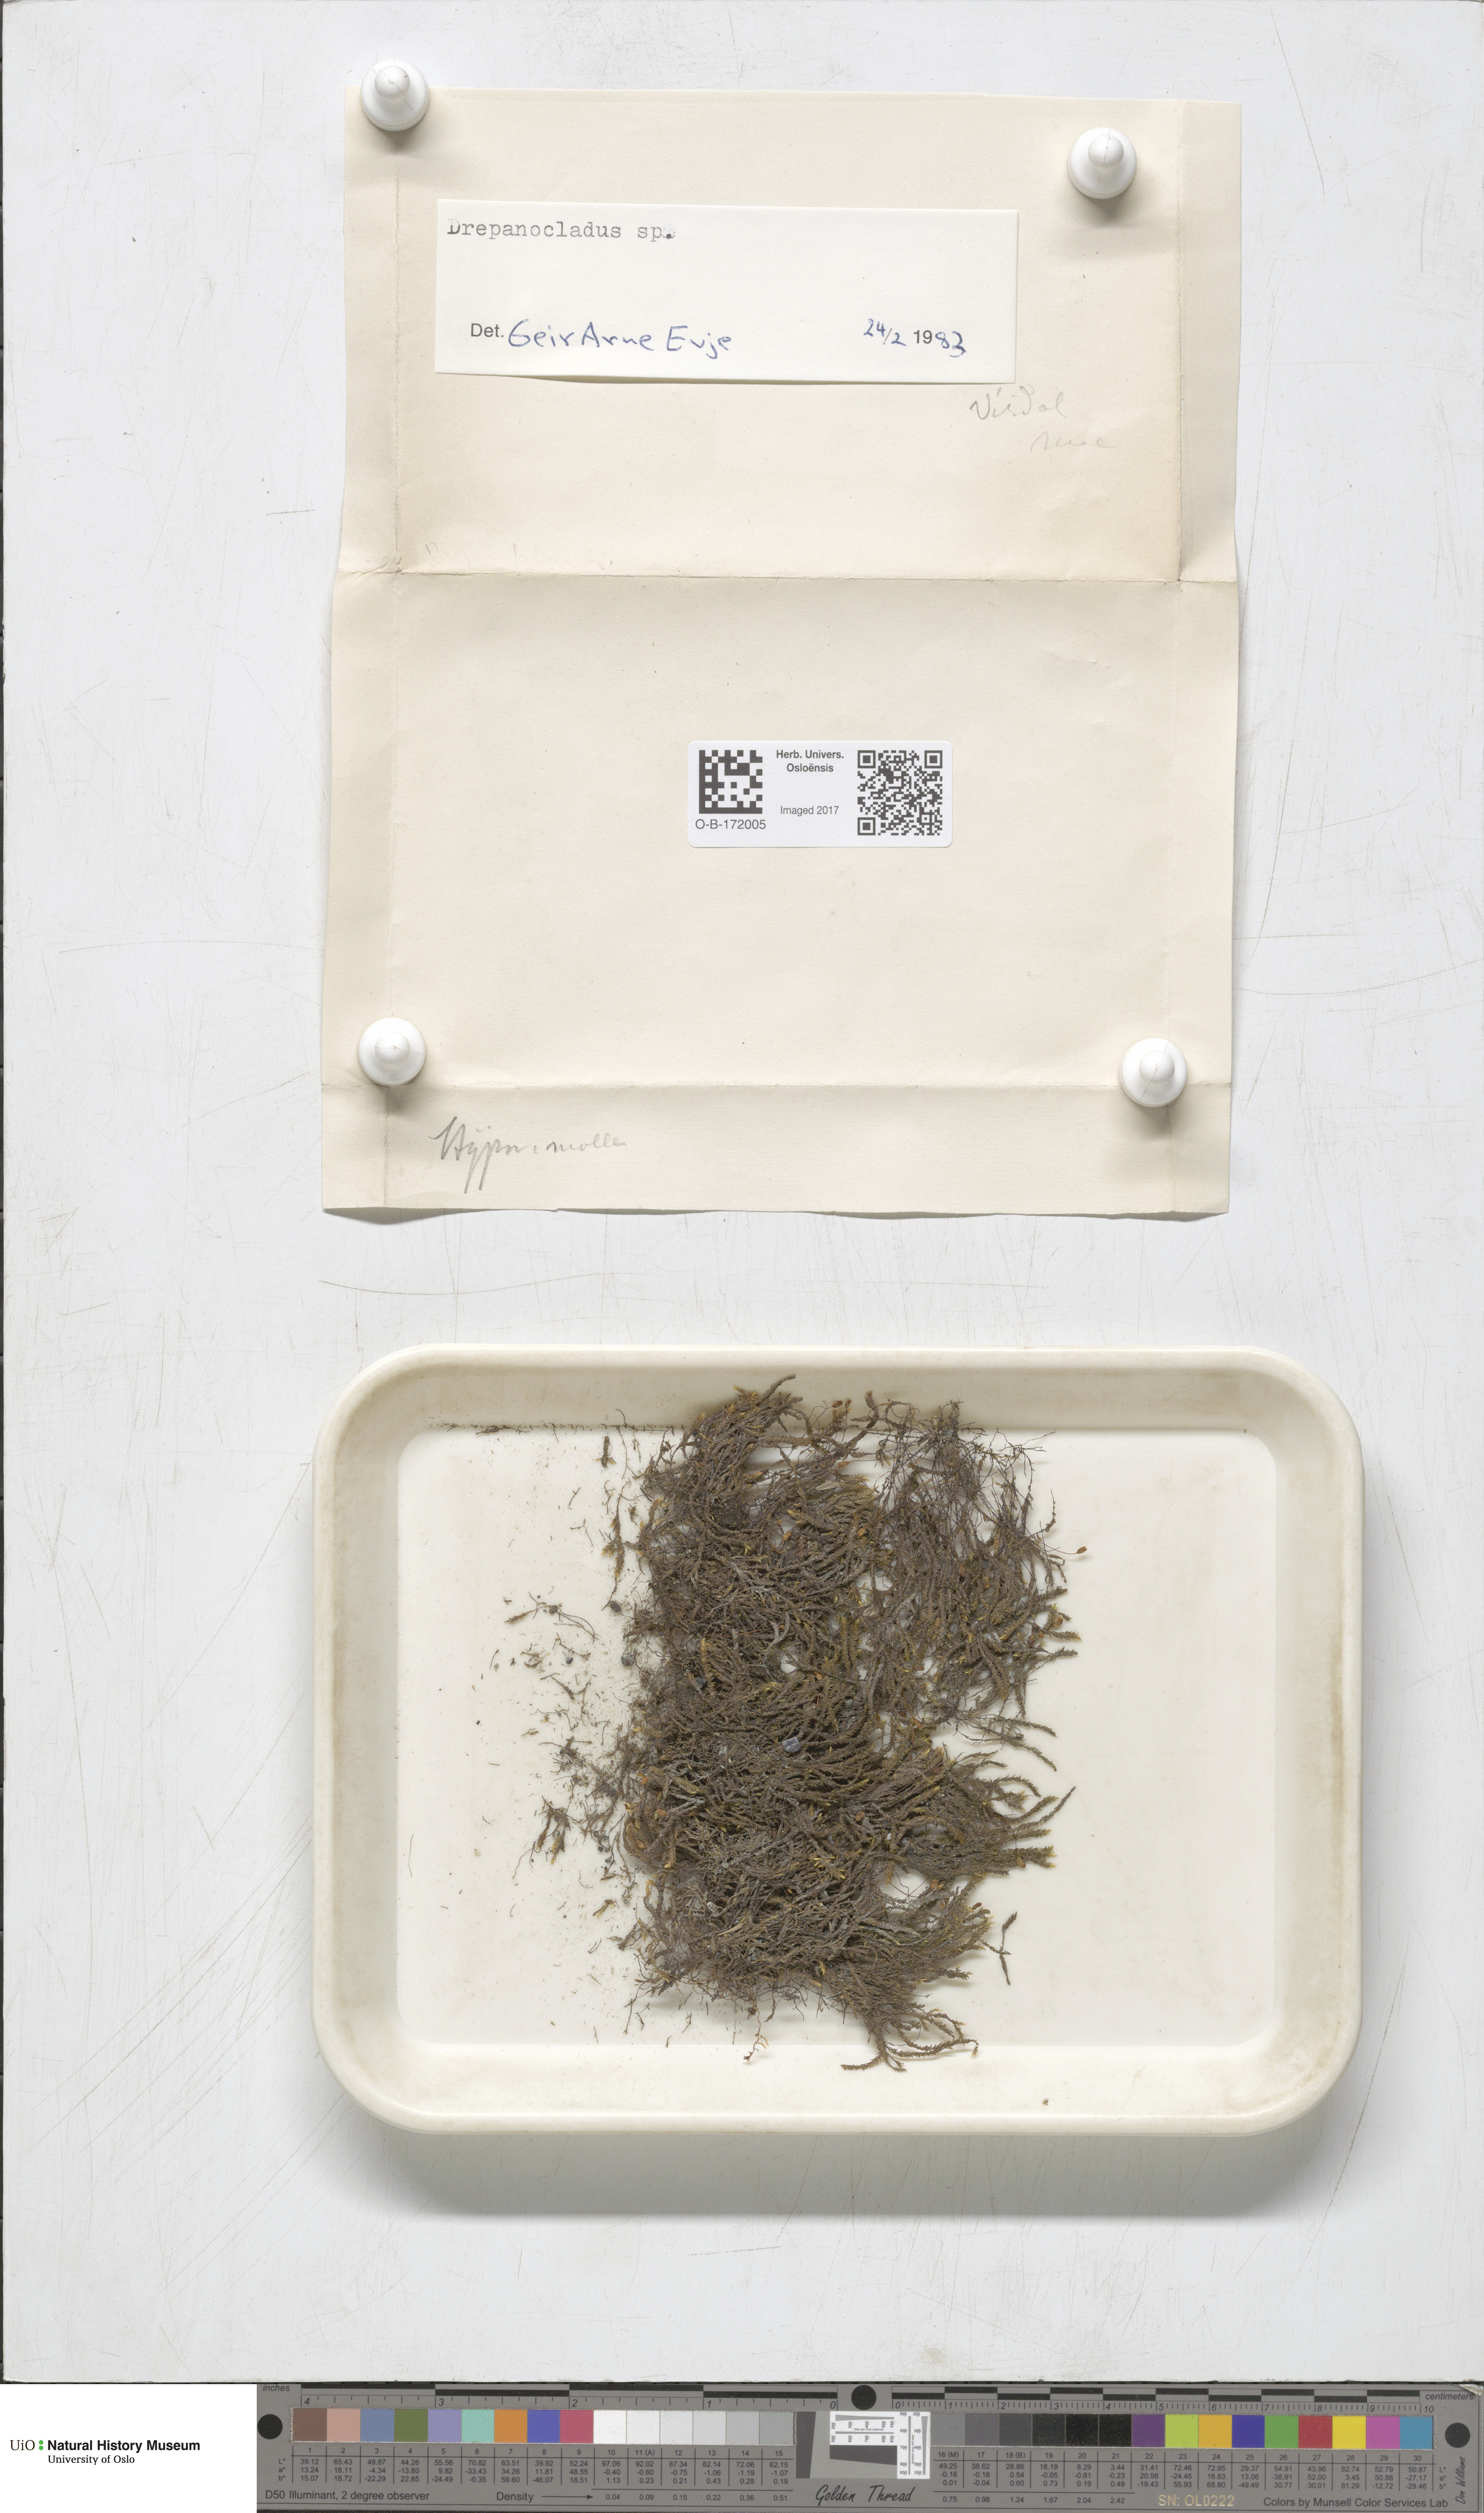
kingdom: Plantae
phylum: Bryophyta
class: Bryopsida
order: Hypnales
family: Amblystegiaceae
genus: Drepanocladus
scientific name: Drepanocladus sordidus
